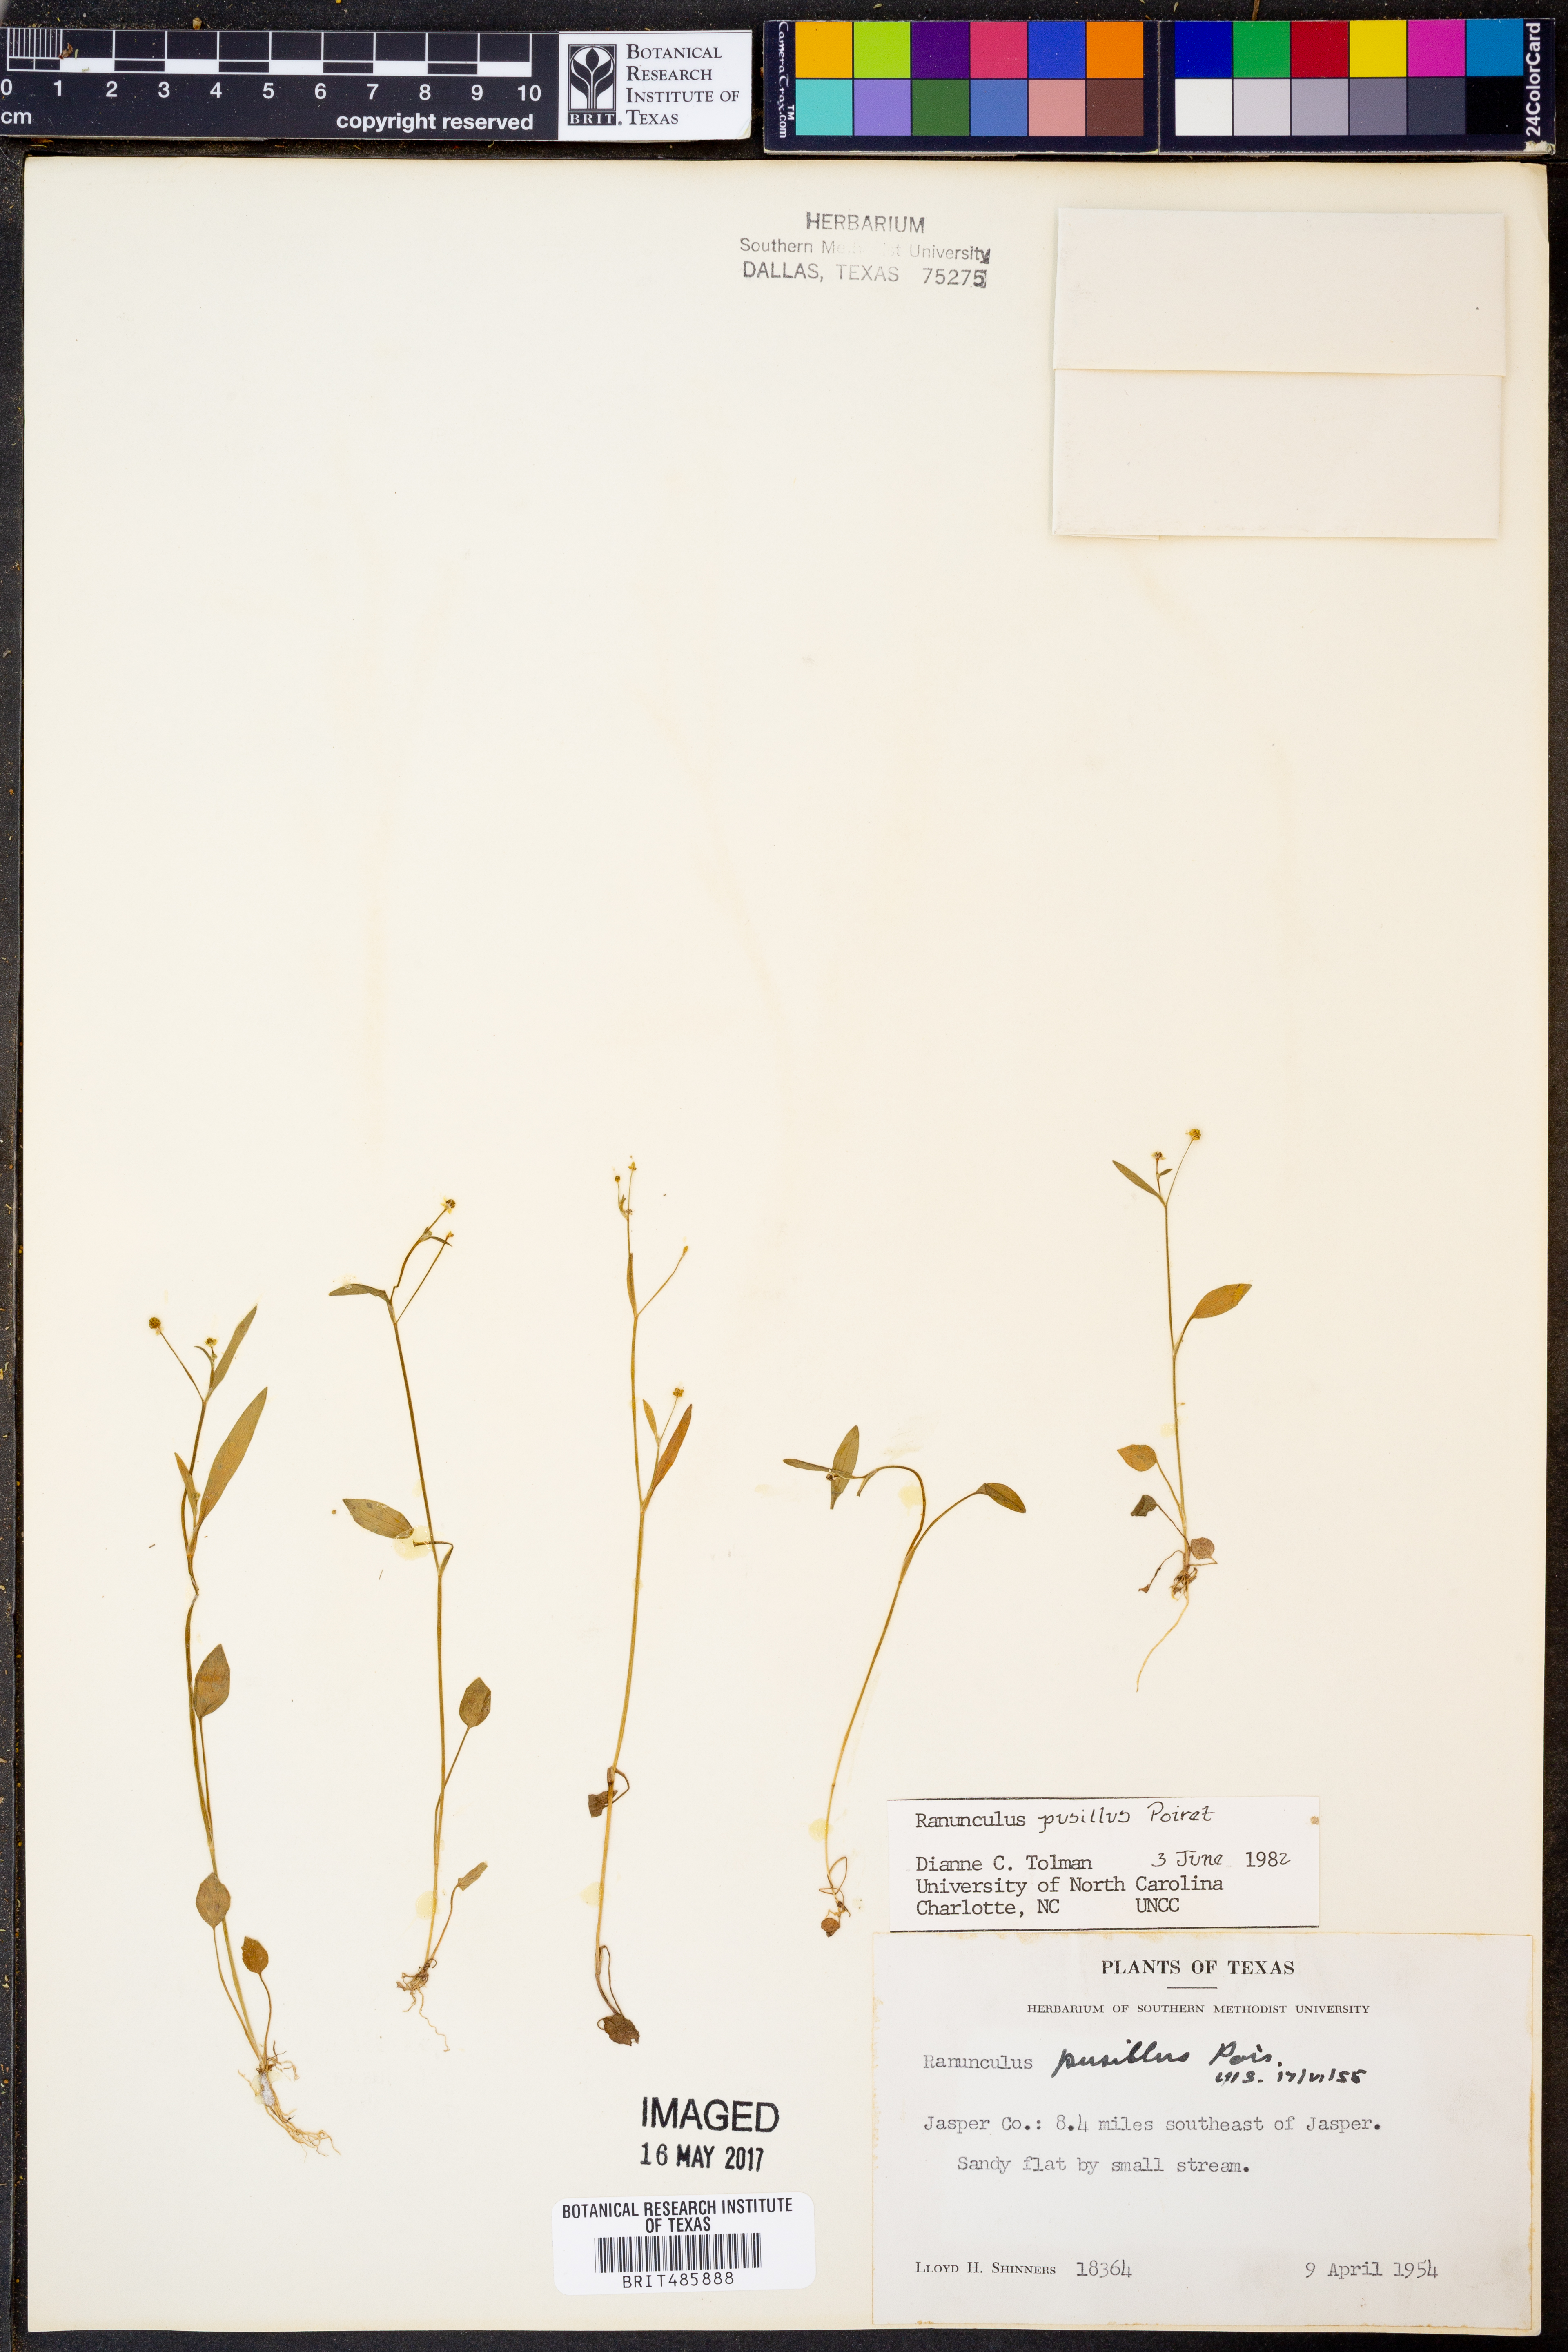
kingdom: Plantae
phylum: Tracheophyta
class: Magnoliopsida
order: Ranunculales
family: Ranunculaceae
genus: Ranunculus
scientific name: Ranunculus pusillus
